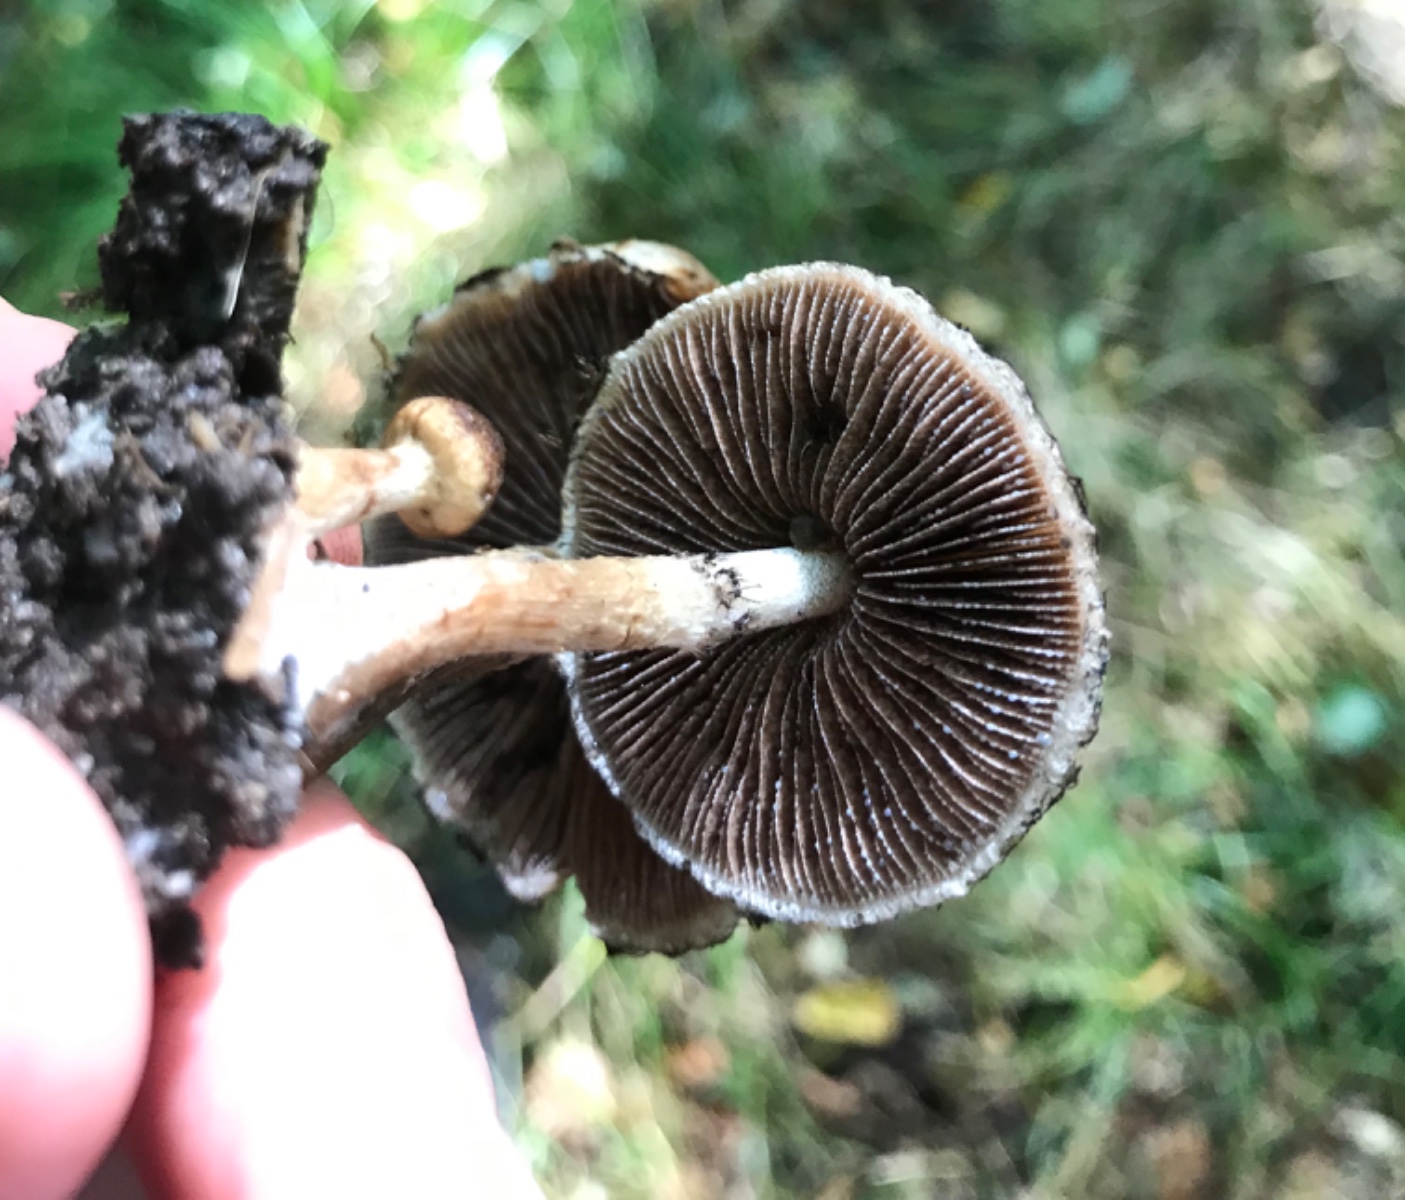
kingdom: Fungi
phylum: Basidiomycota
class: Agaricomycetes
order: Agaricales
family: Psathyrellaceae
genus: Lacrymaria
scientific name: Lacrymaria lacrymabunda
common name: grædende mørkhat
